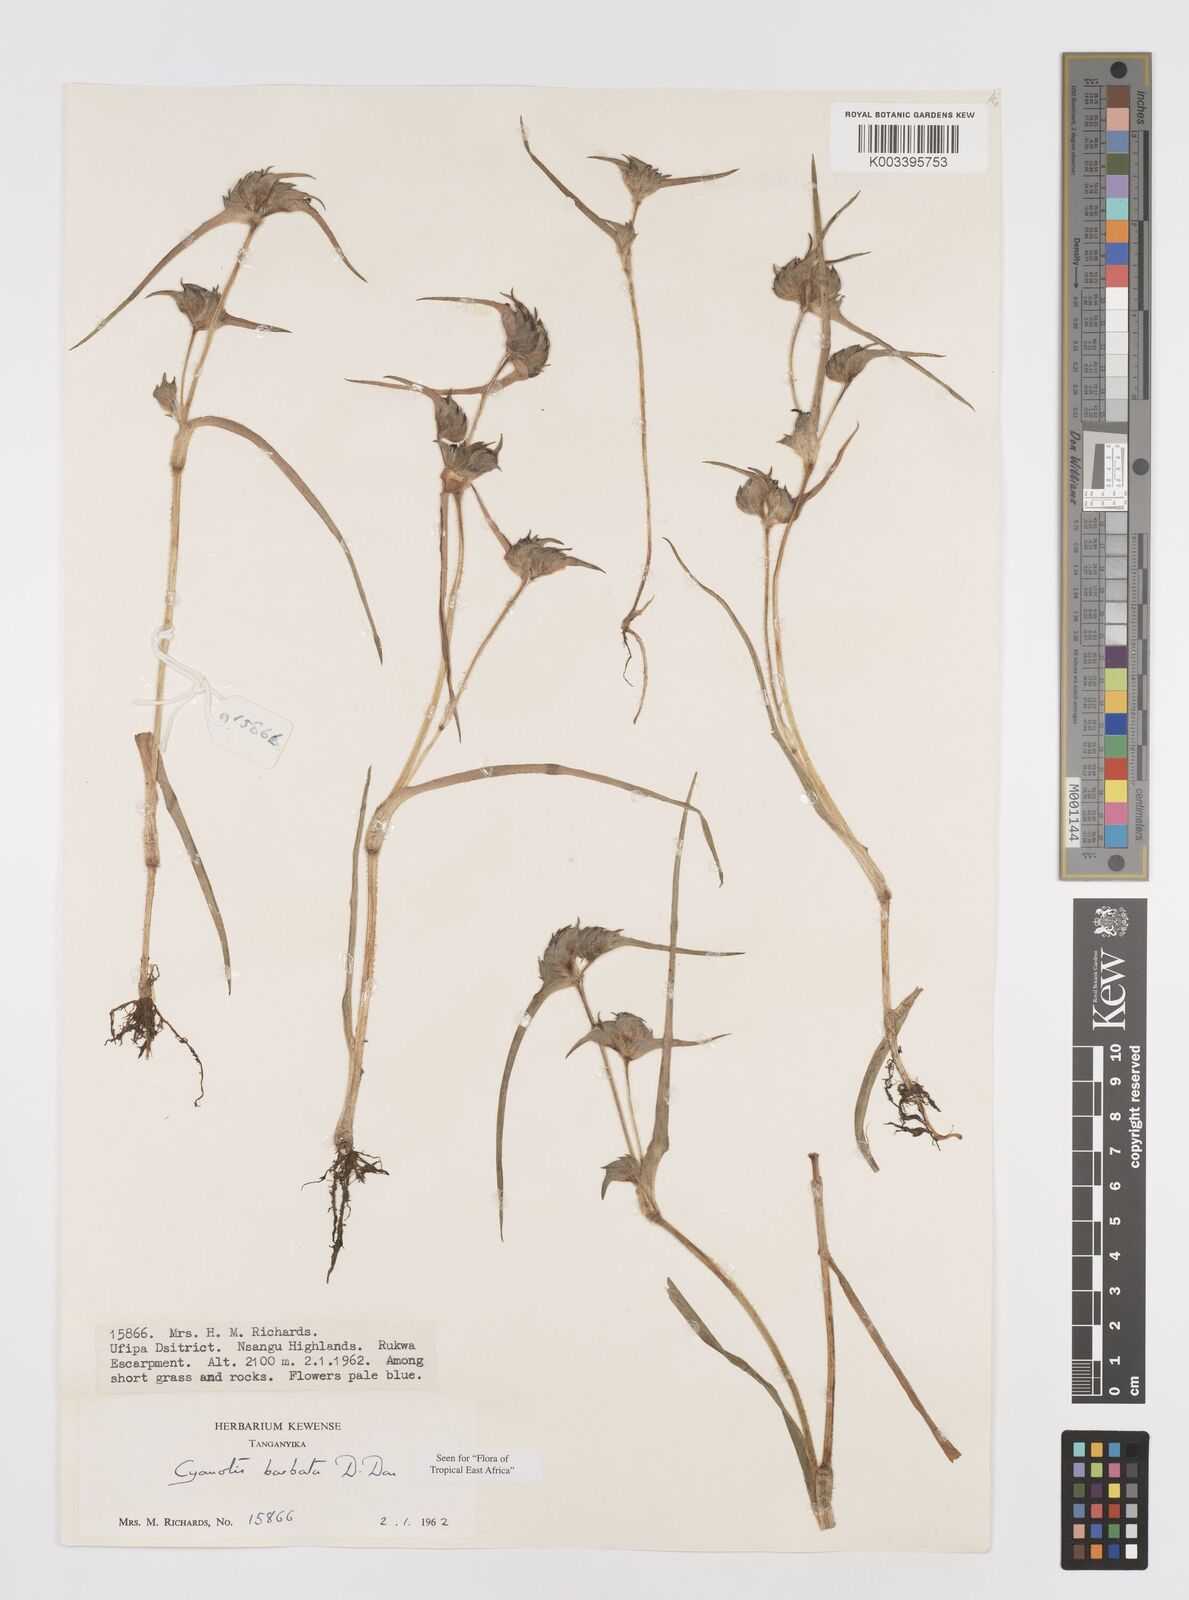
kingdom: Plantae
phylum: Tracheophyta
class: Liliopsida
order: Commelinales
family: Commelinaceae
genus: Cyanotis
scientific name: Cyanotis vaga
